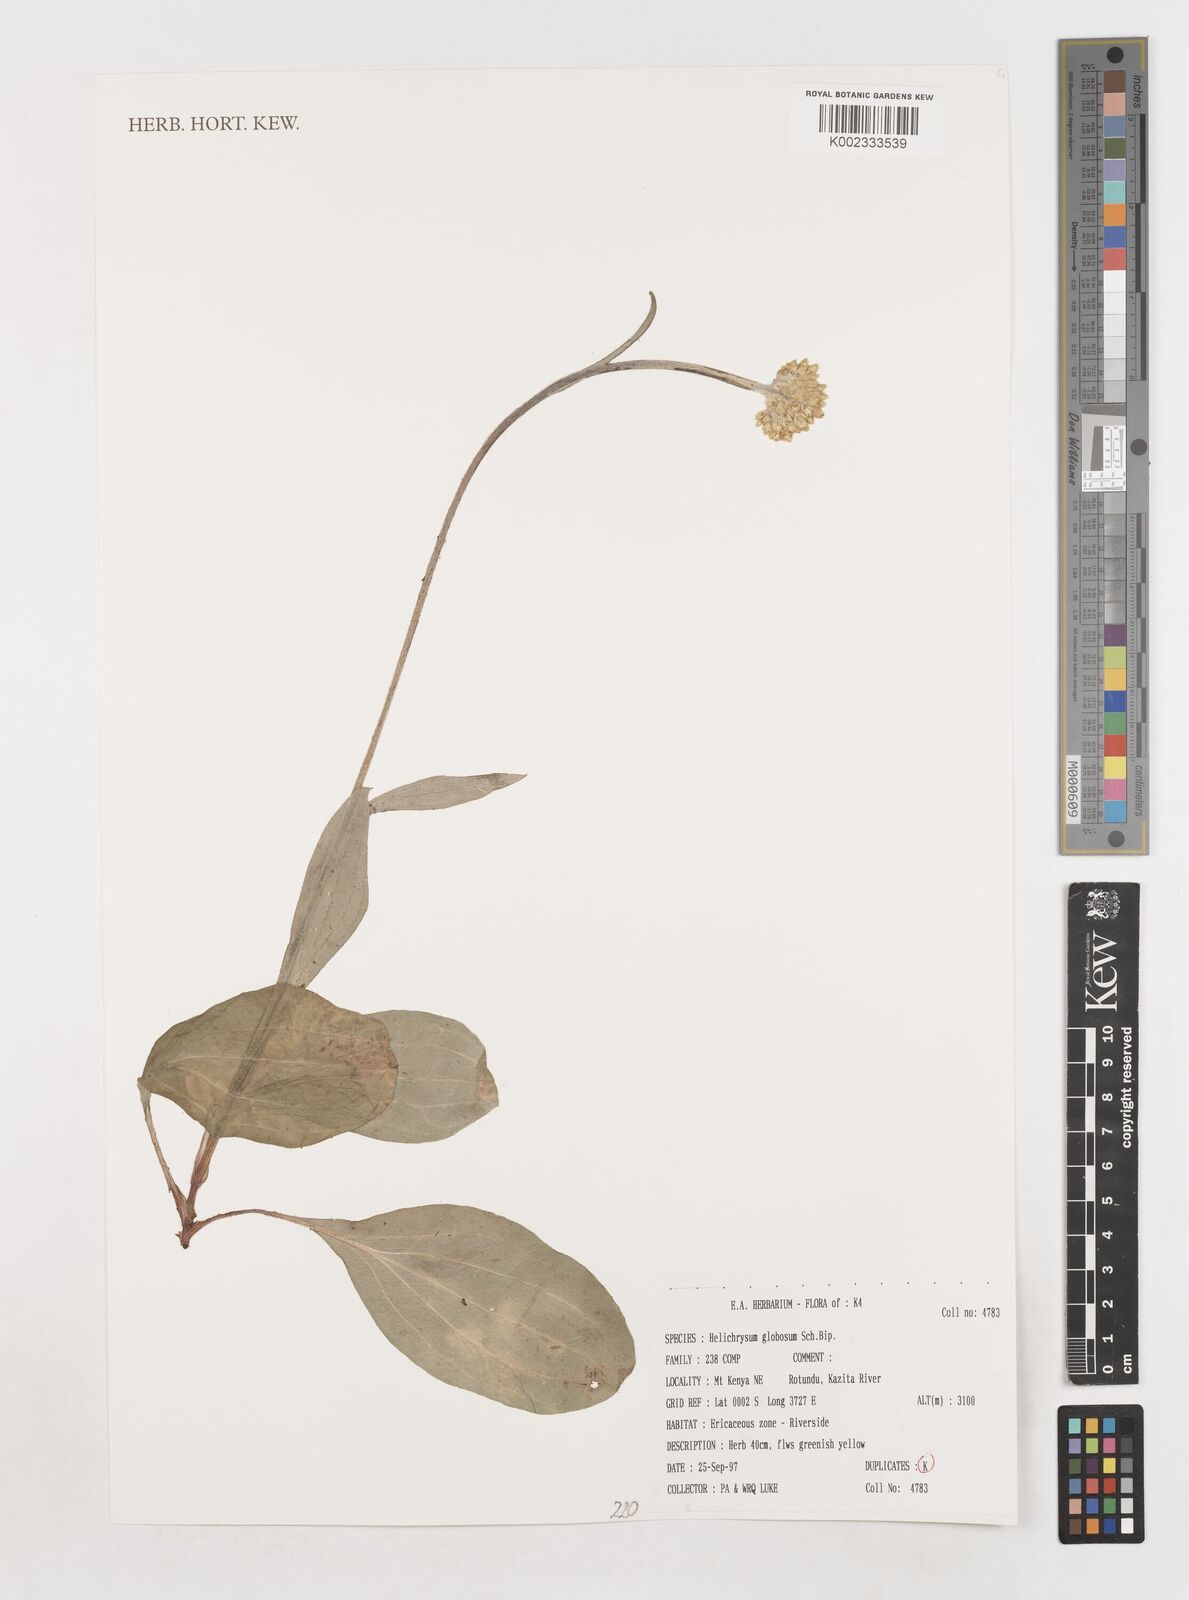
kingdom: Plantae
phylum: Tracheophyta
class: Magnoliopsida
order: Asterales
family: Asteraceae
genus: Helichrysum
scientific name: Helichrysum globosum
